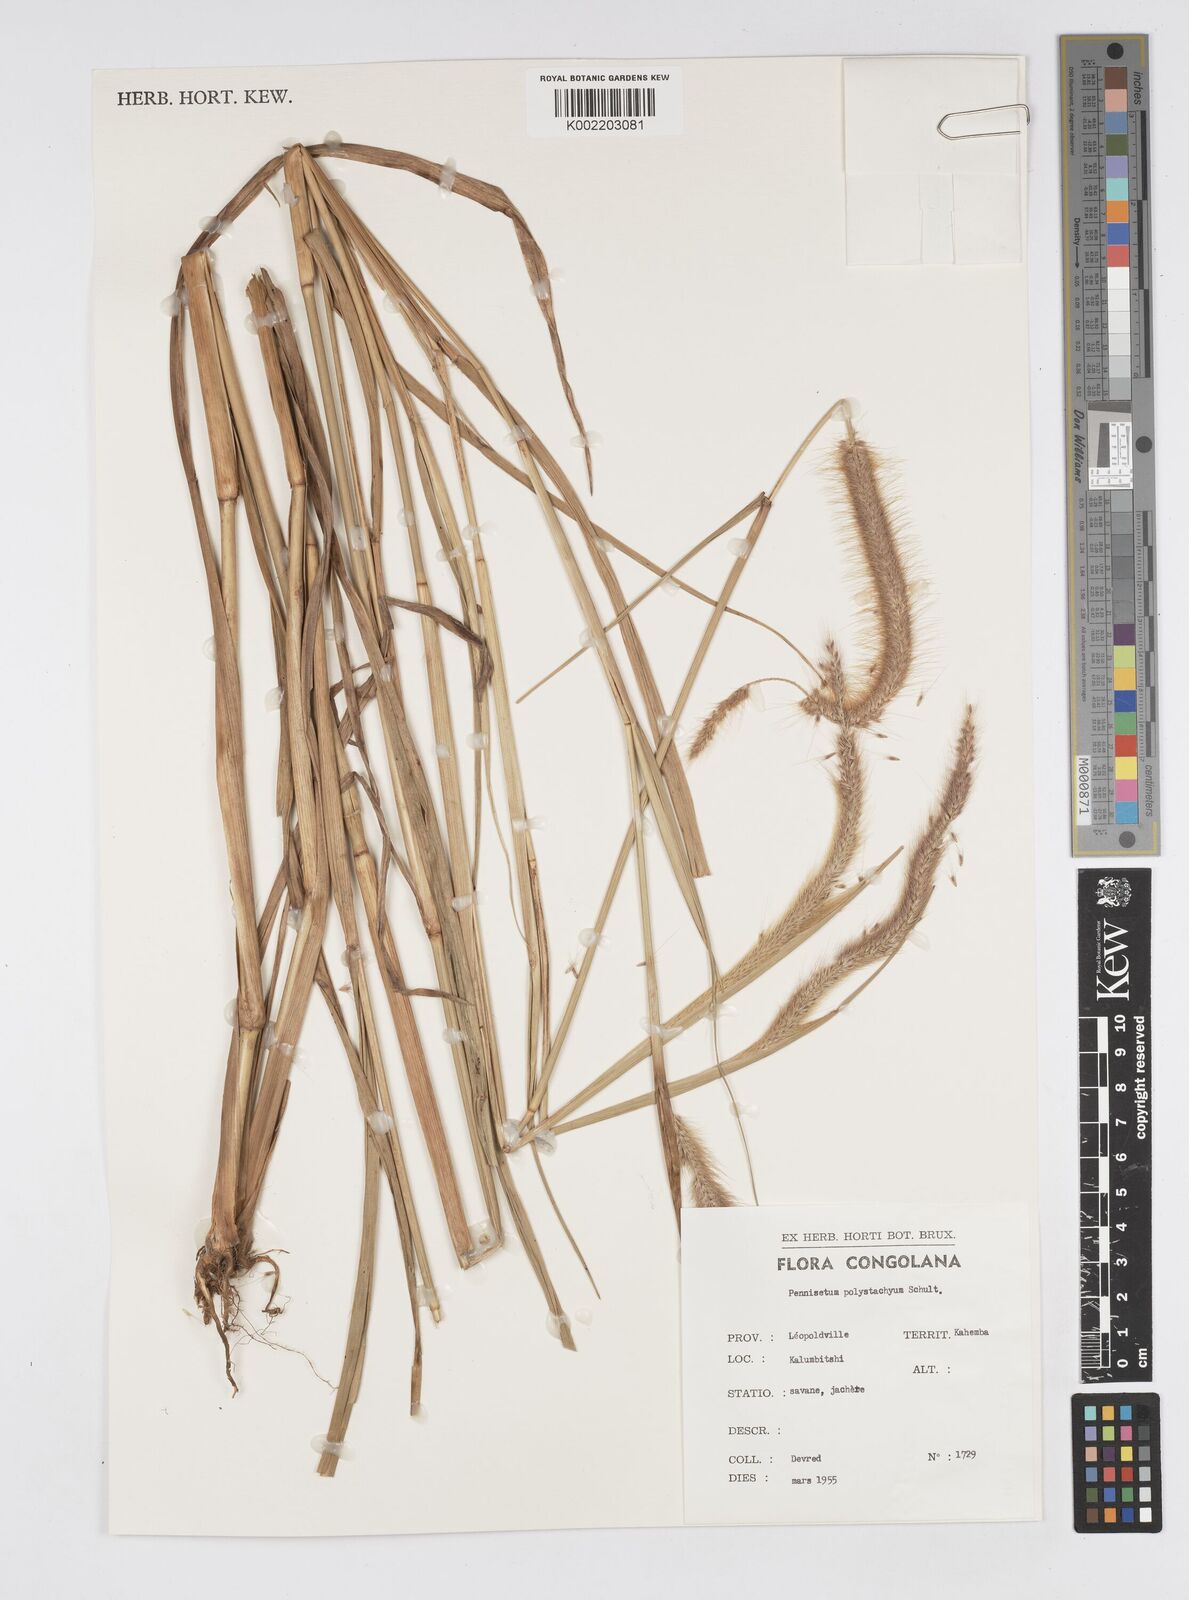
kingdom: Plantae
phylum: Tracheophyta
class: Liliopsida
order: Poales
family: Poaceae
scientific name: Poaceae
